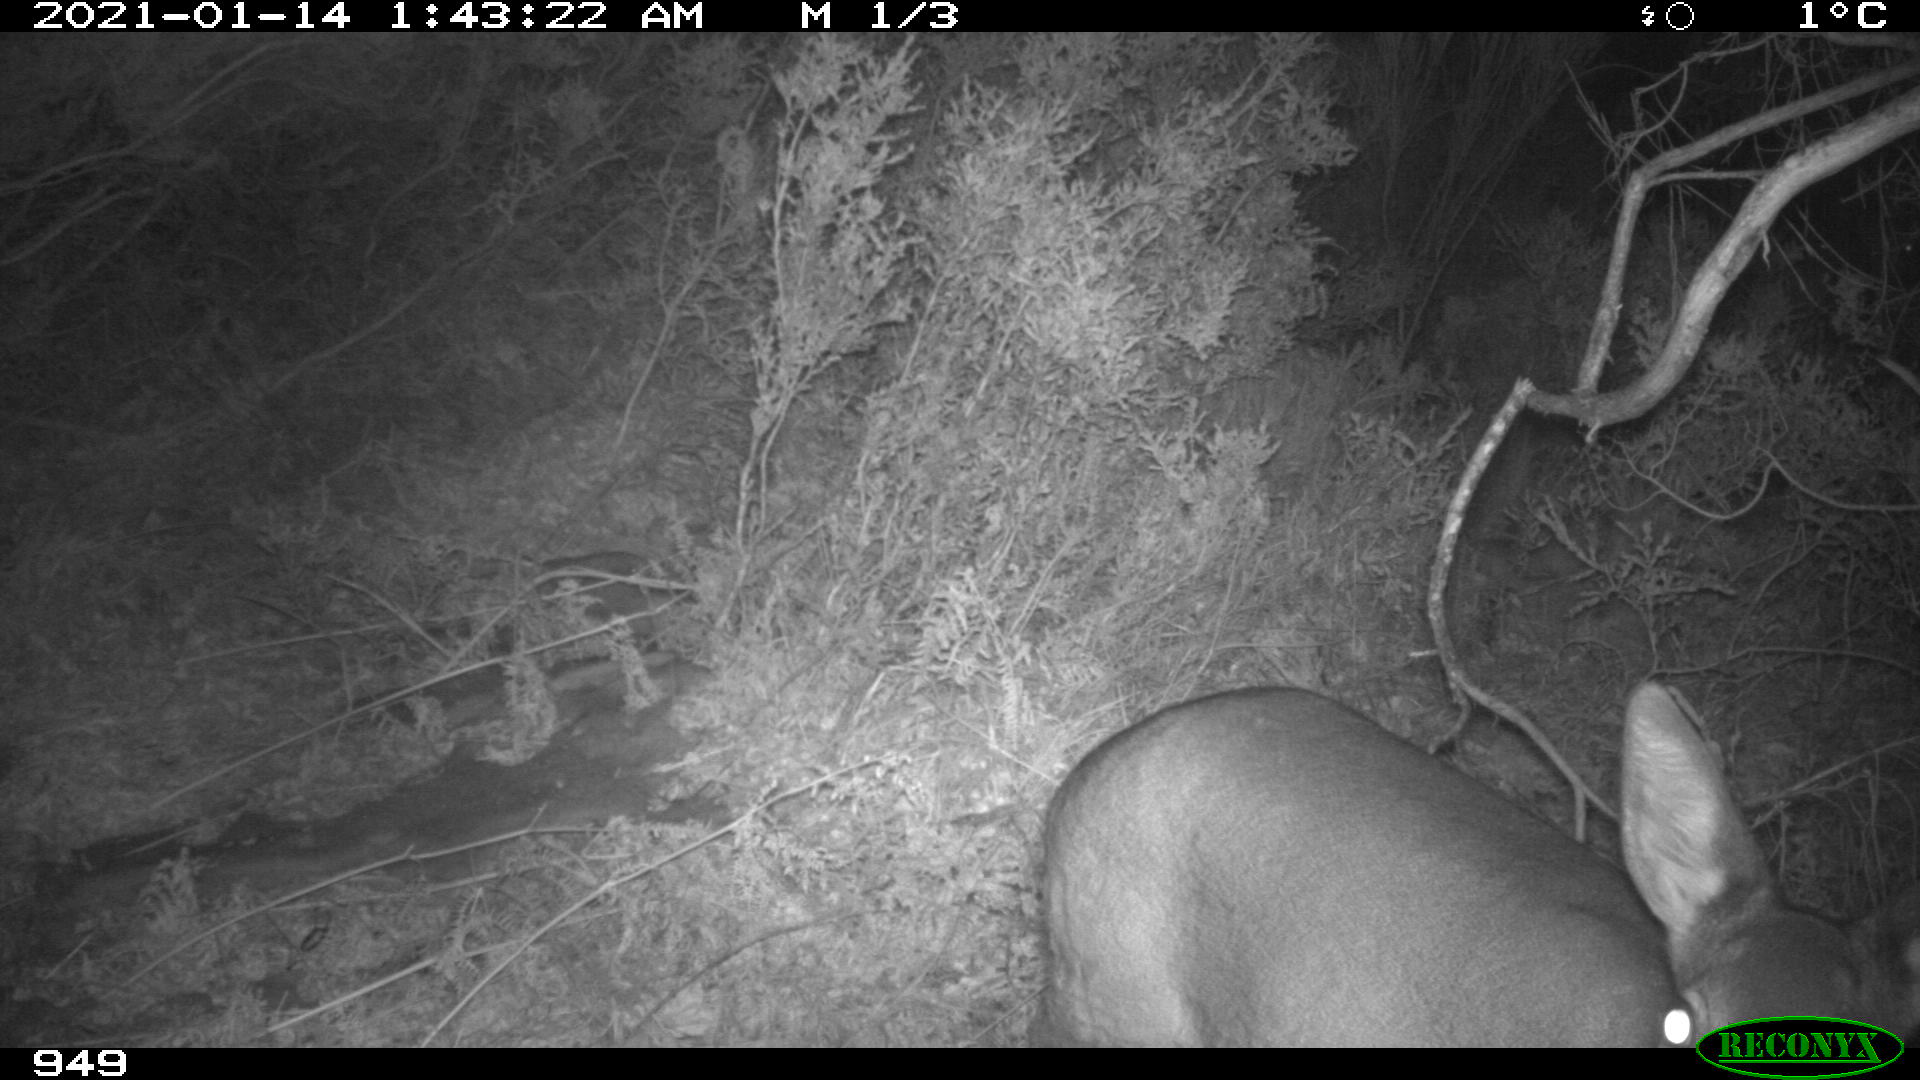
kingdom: Animalia
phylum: Chordata
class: Mammalia
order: Artiodactyla
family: Cervidae
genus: Capreolus
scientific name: Capreolus capreolus
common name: Western roe deer
